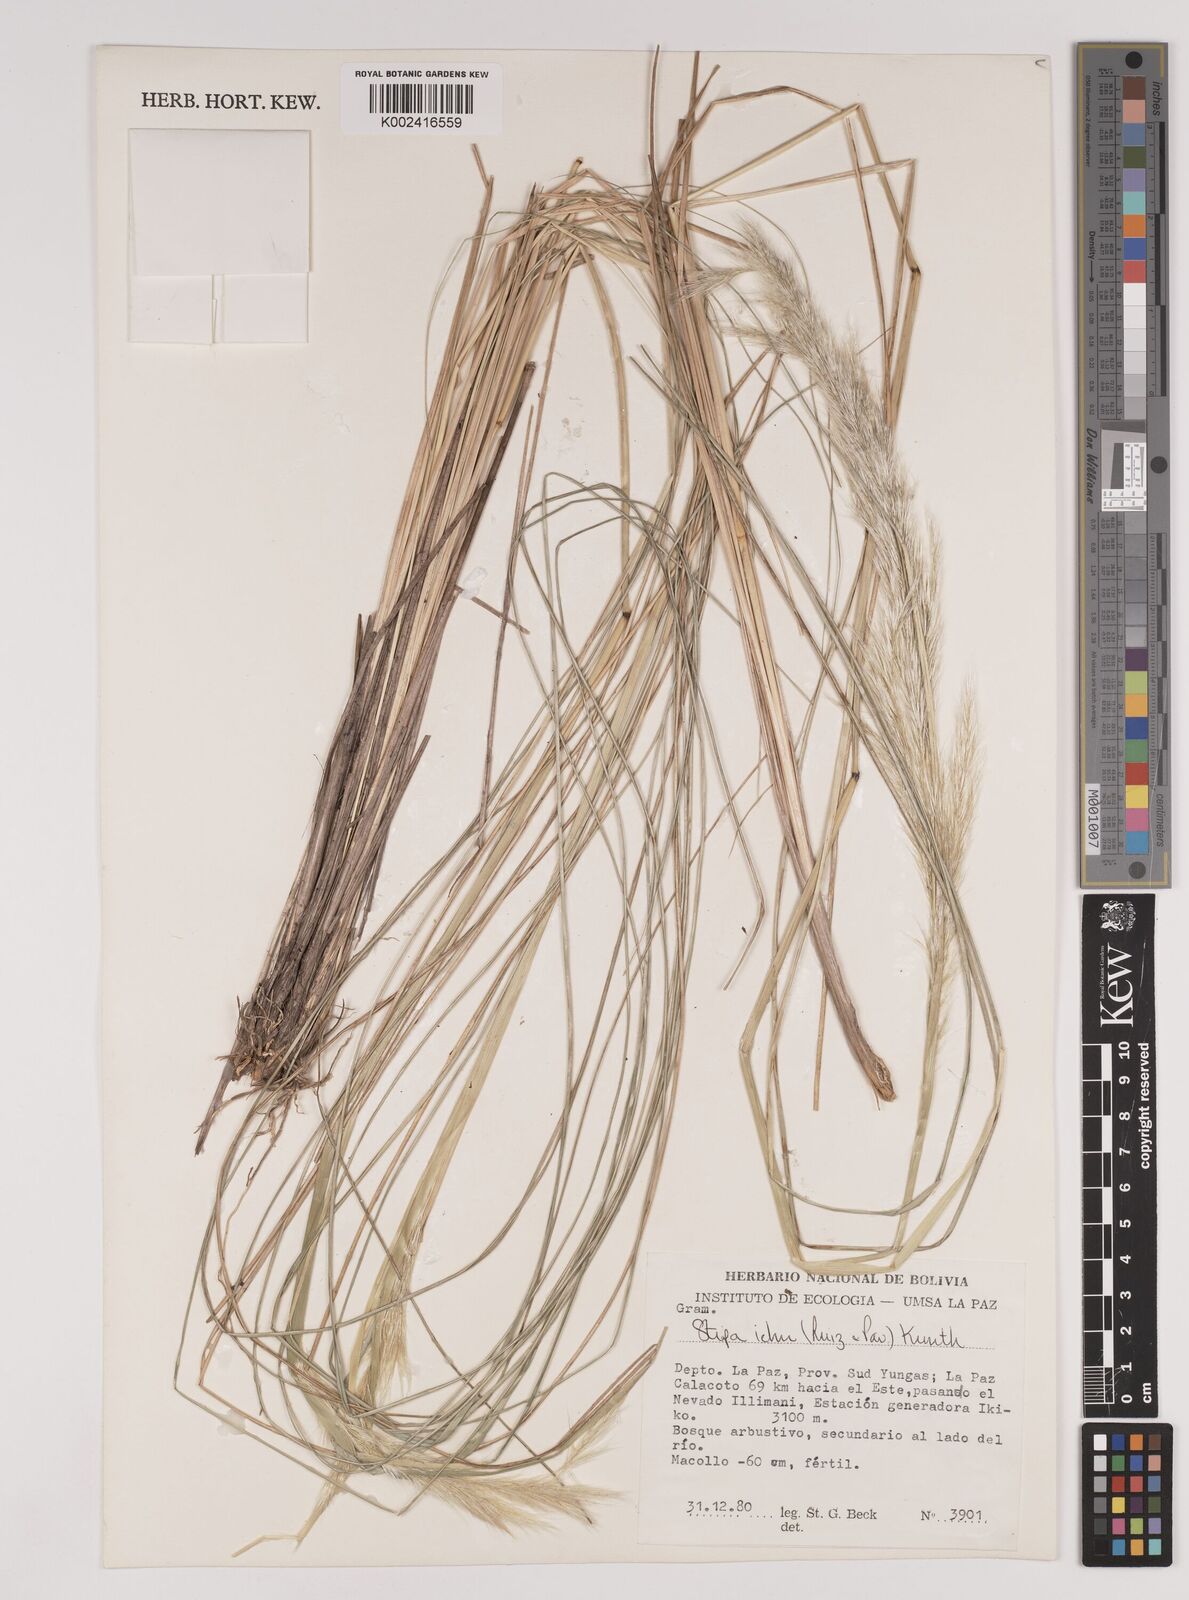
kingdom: Plantae
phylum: Tracheophyta
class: Liliopsida
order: Poales
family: Poaceae
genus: Jarava
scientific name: Jarava pseudoichu
